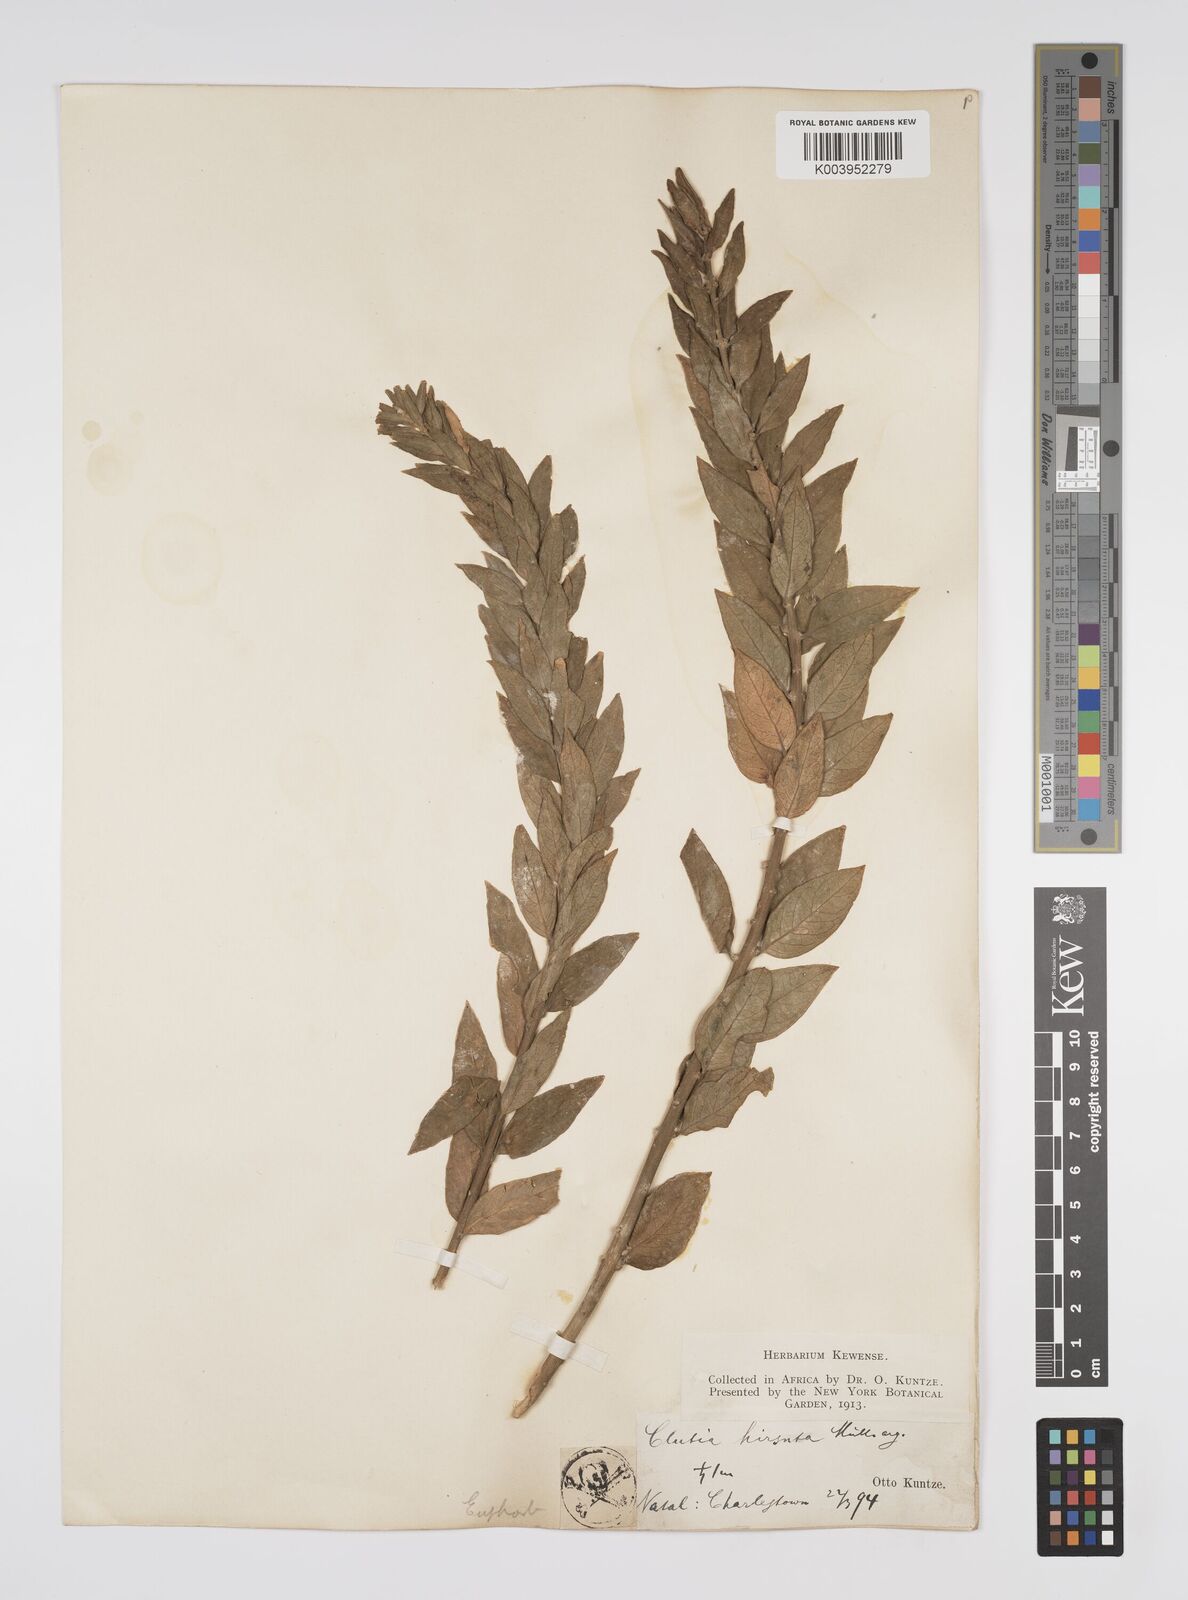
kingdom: Plantae
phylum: Tracheophyta
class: Magnoliopsida
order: Malpighiales
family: Peraceae
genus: Clutia
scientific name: Clutia affinis
